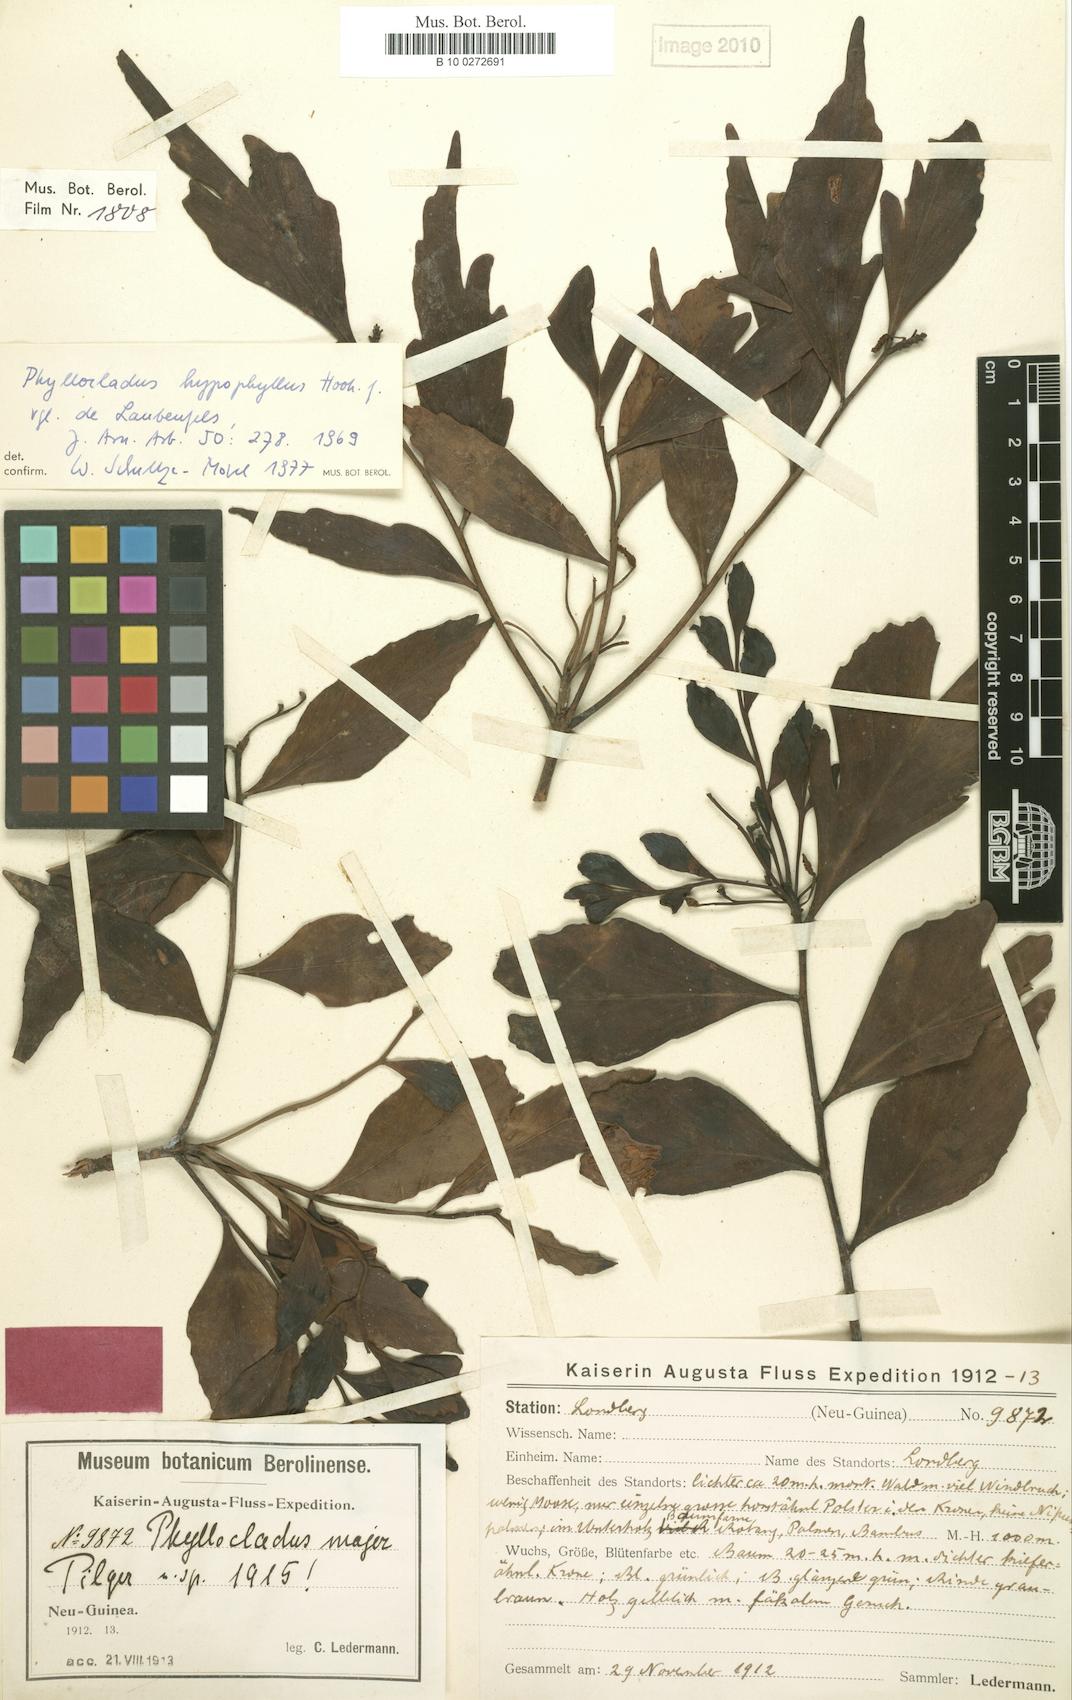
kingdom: Plantae
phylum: Tracheophyta
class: Pinopsida
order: Pinales
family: Phyllocladaceae
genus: Phyllocladus
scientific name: Phyllocladus hypophyllus
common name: Celery pine
